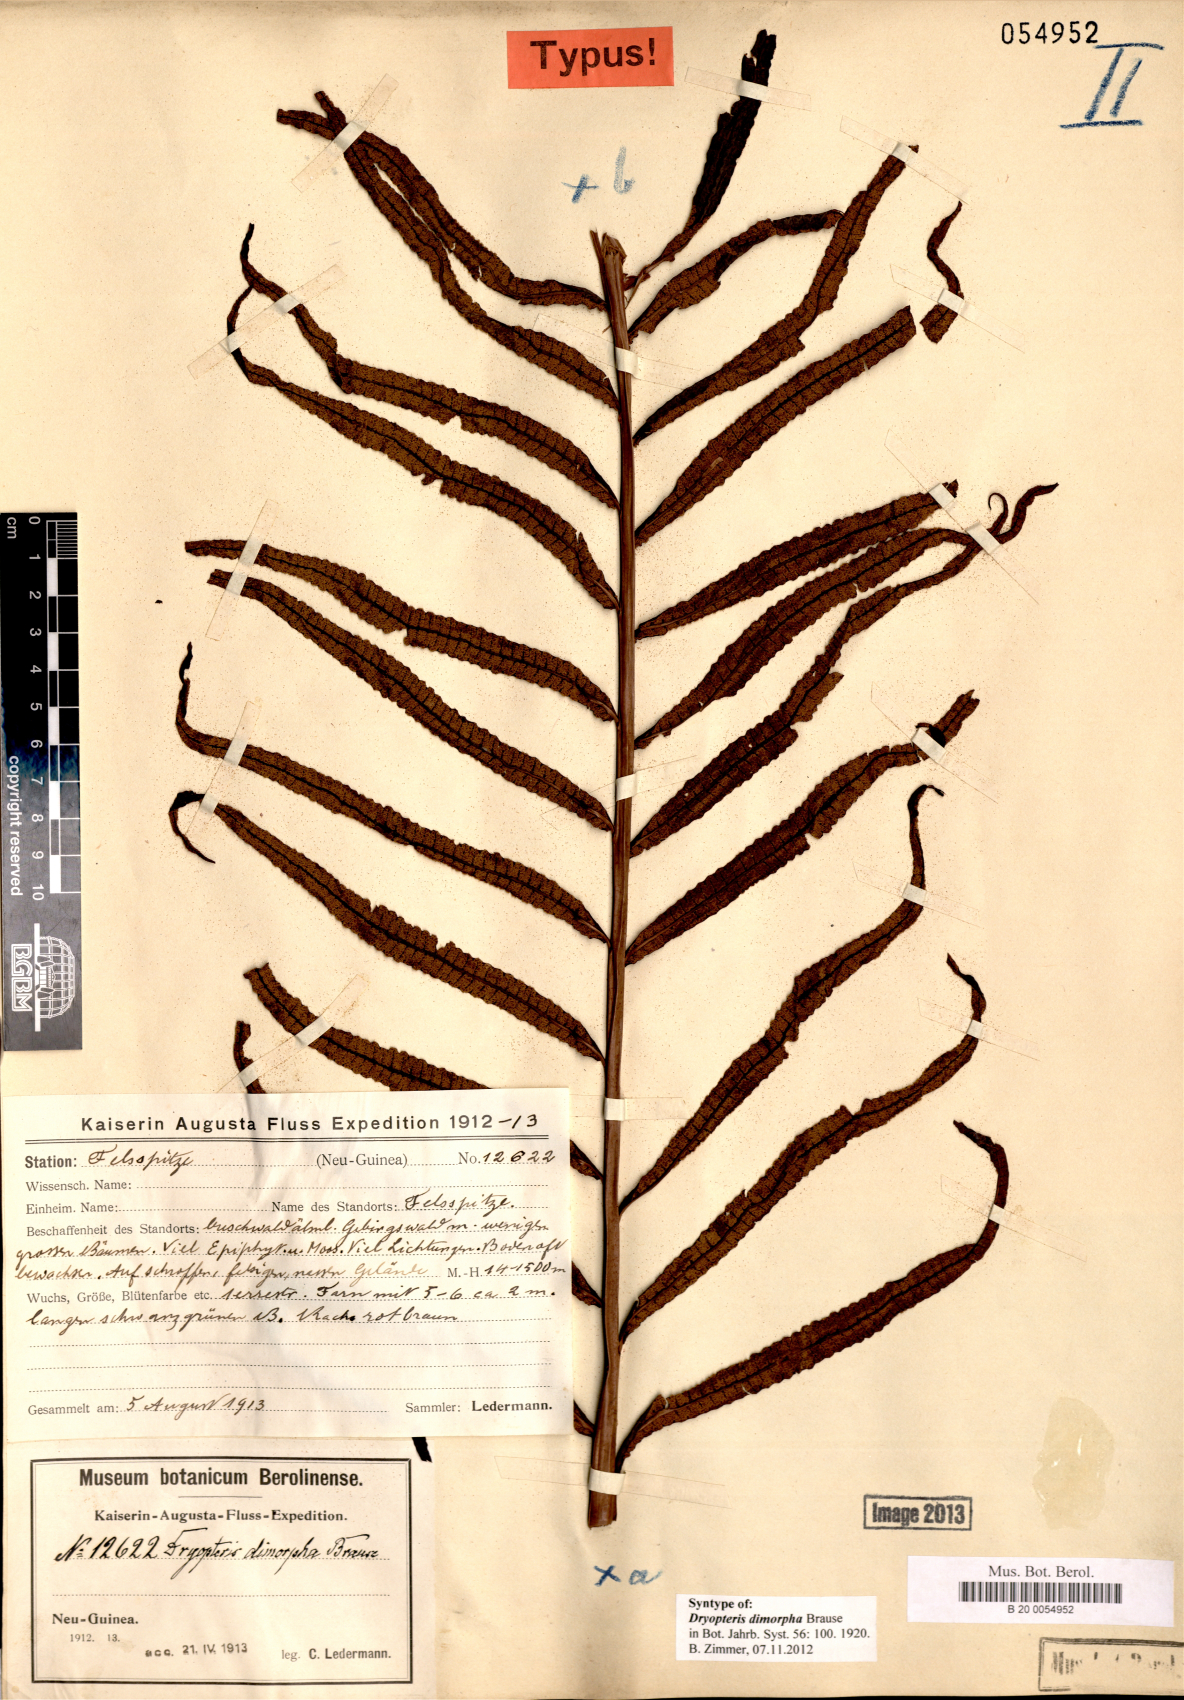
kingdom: Plantae
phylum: Tracheophyta
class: Polypodiopsida
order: Polypodiales
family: Thelypteridaceae
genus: Sphaerostephanos
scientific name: Sphaerostephanos dimorphus
